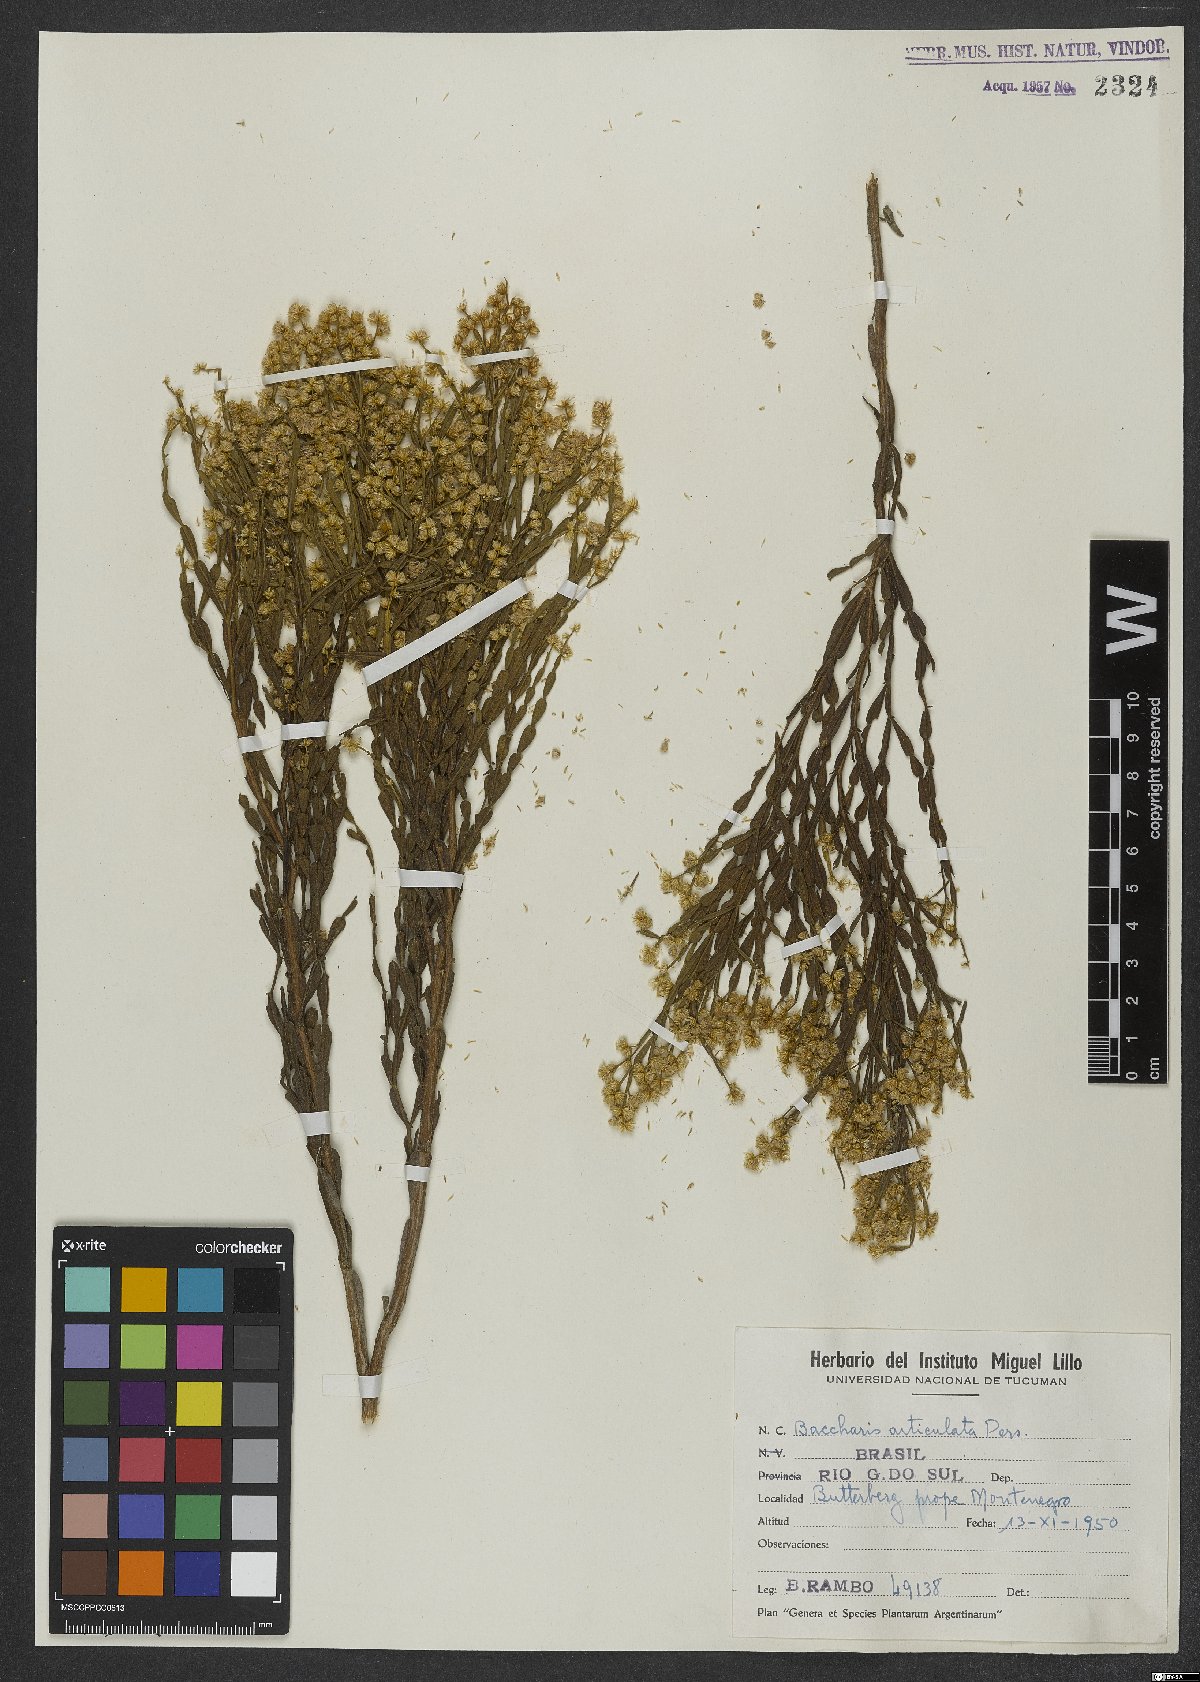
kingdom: Plantae
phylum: Tracheophyta
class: Magnoliopsida
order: Asterales
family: Asteraceae
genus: Baccharis
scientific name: Baccharis articulata
